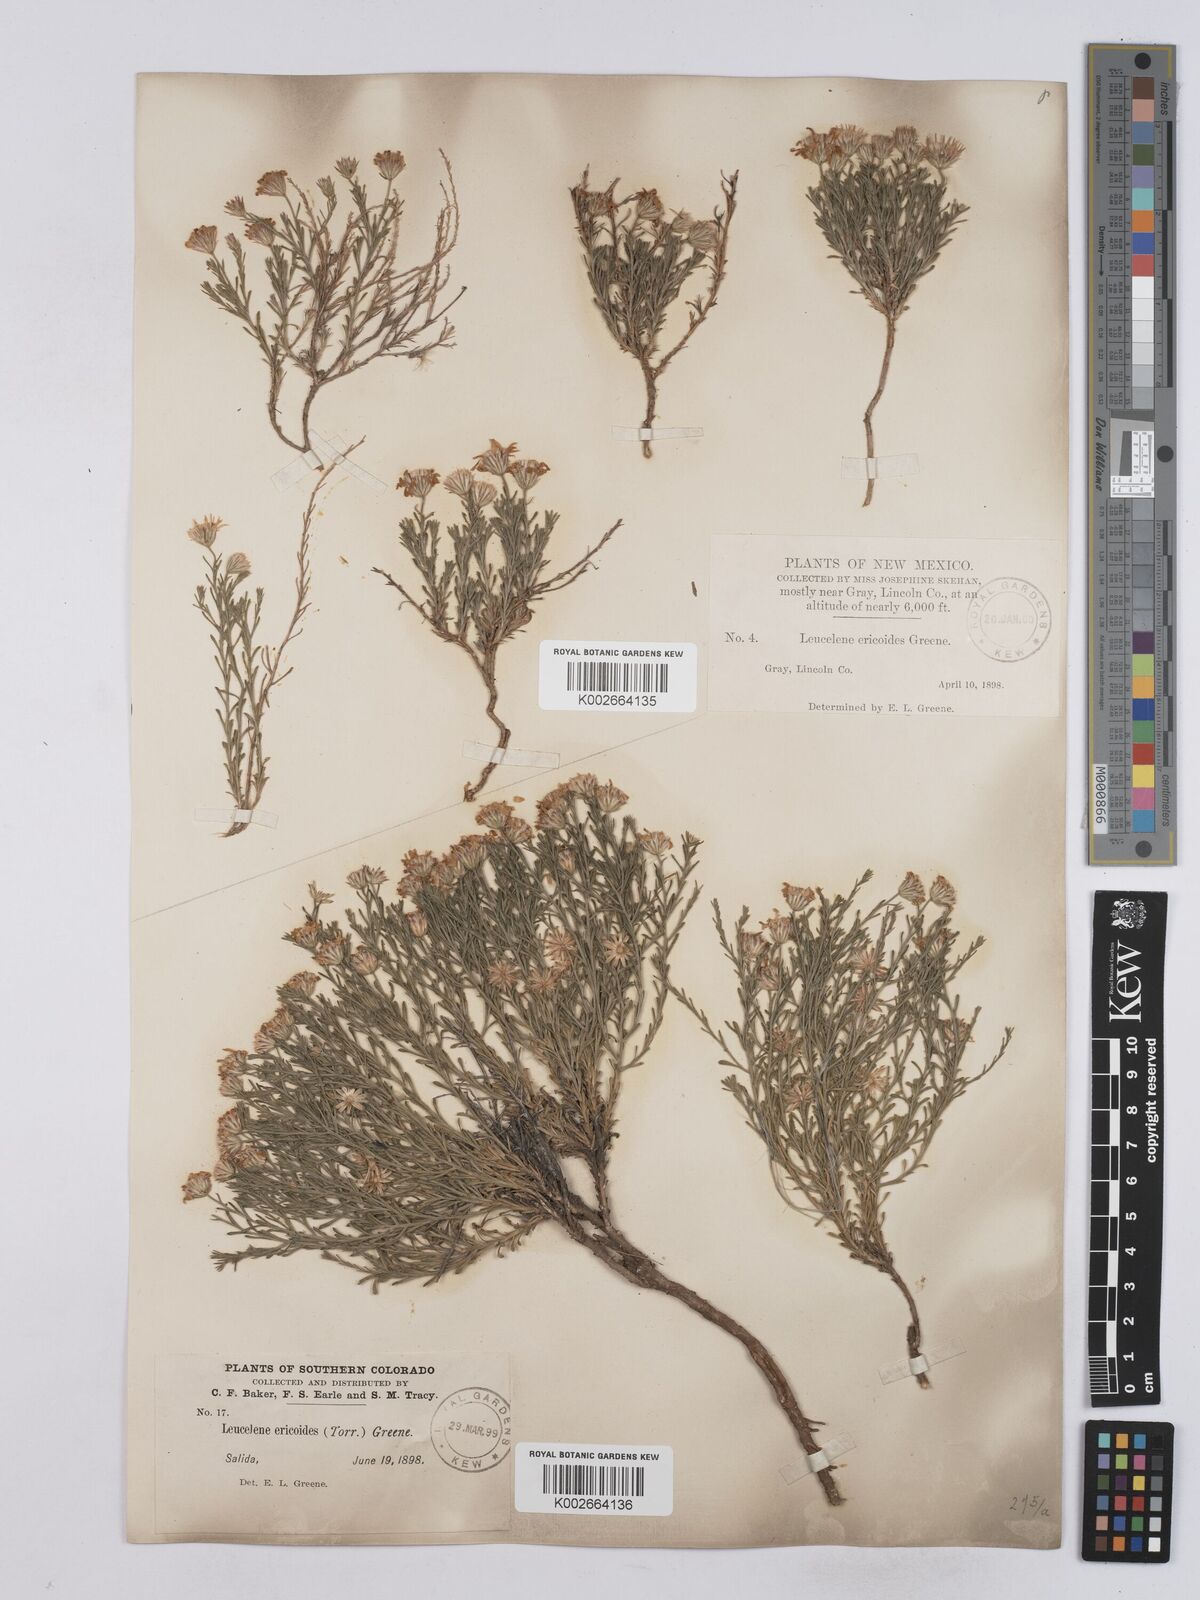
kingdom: Plantae
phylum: Tracheophyta
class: Magnoliopsida
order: Asterales
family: Asteraceae
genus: Chaetopappa
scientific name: Chaetopappa ericoides
